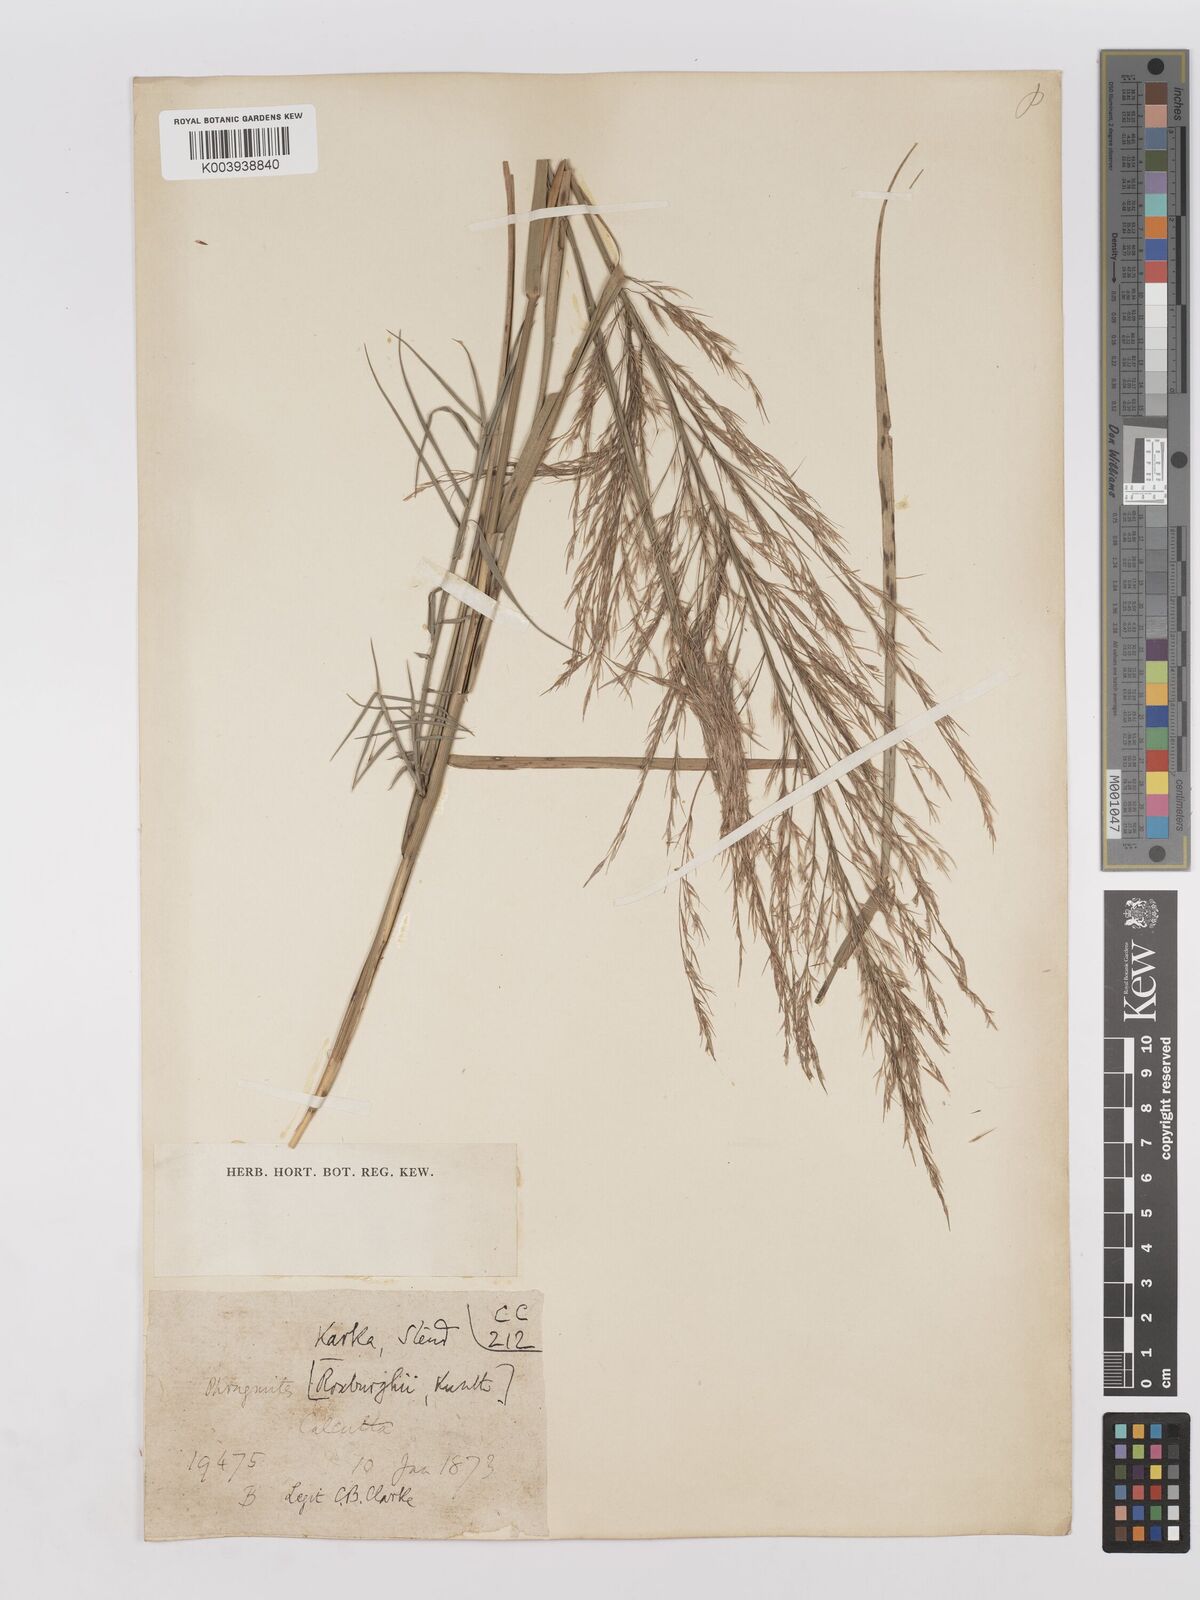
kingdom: Plantae
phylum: Tracheophyta
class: Liliopsida
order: Poales
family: Poaceae
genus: Phragmites
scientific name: Phragmites karka
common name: Tropical reed
